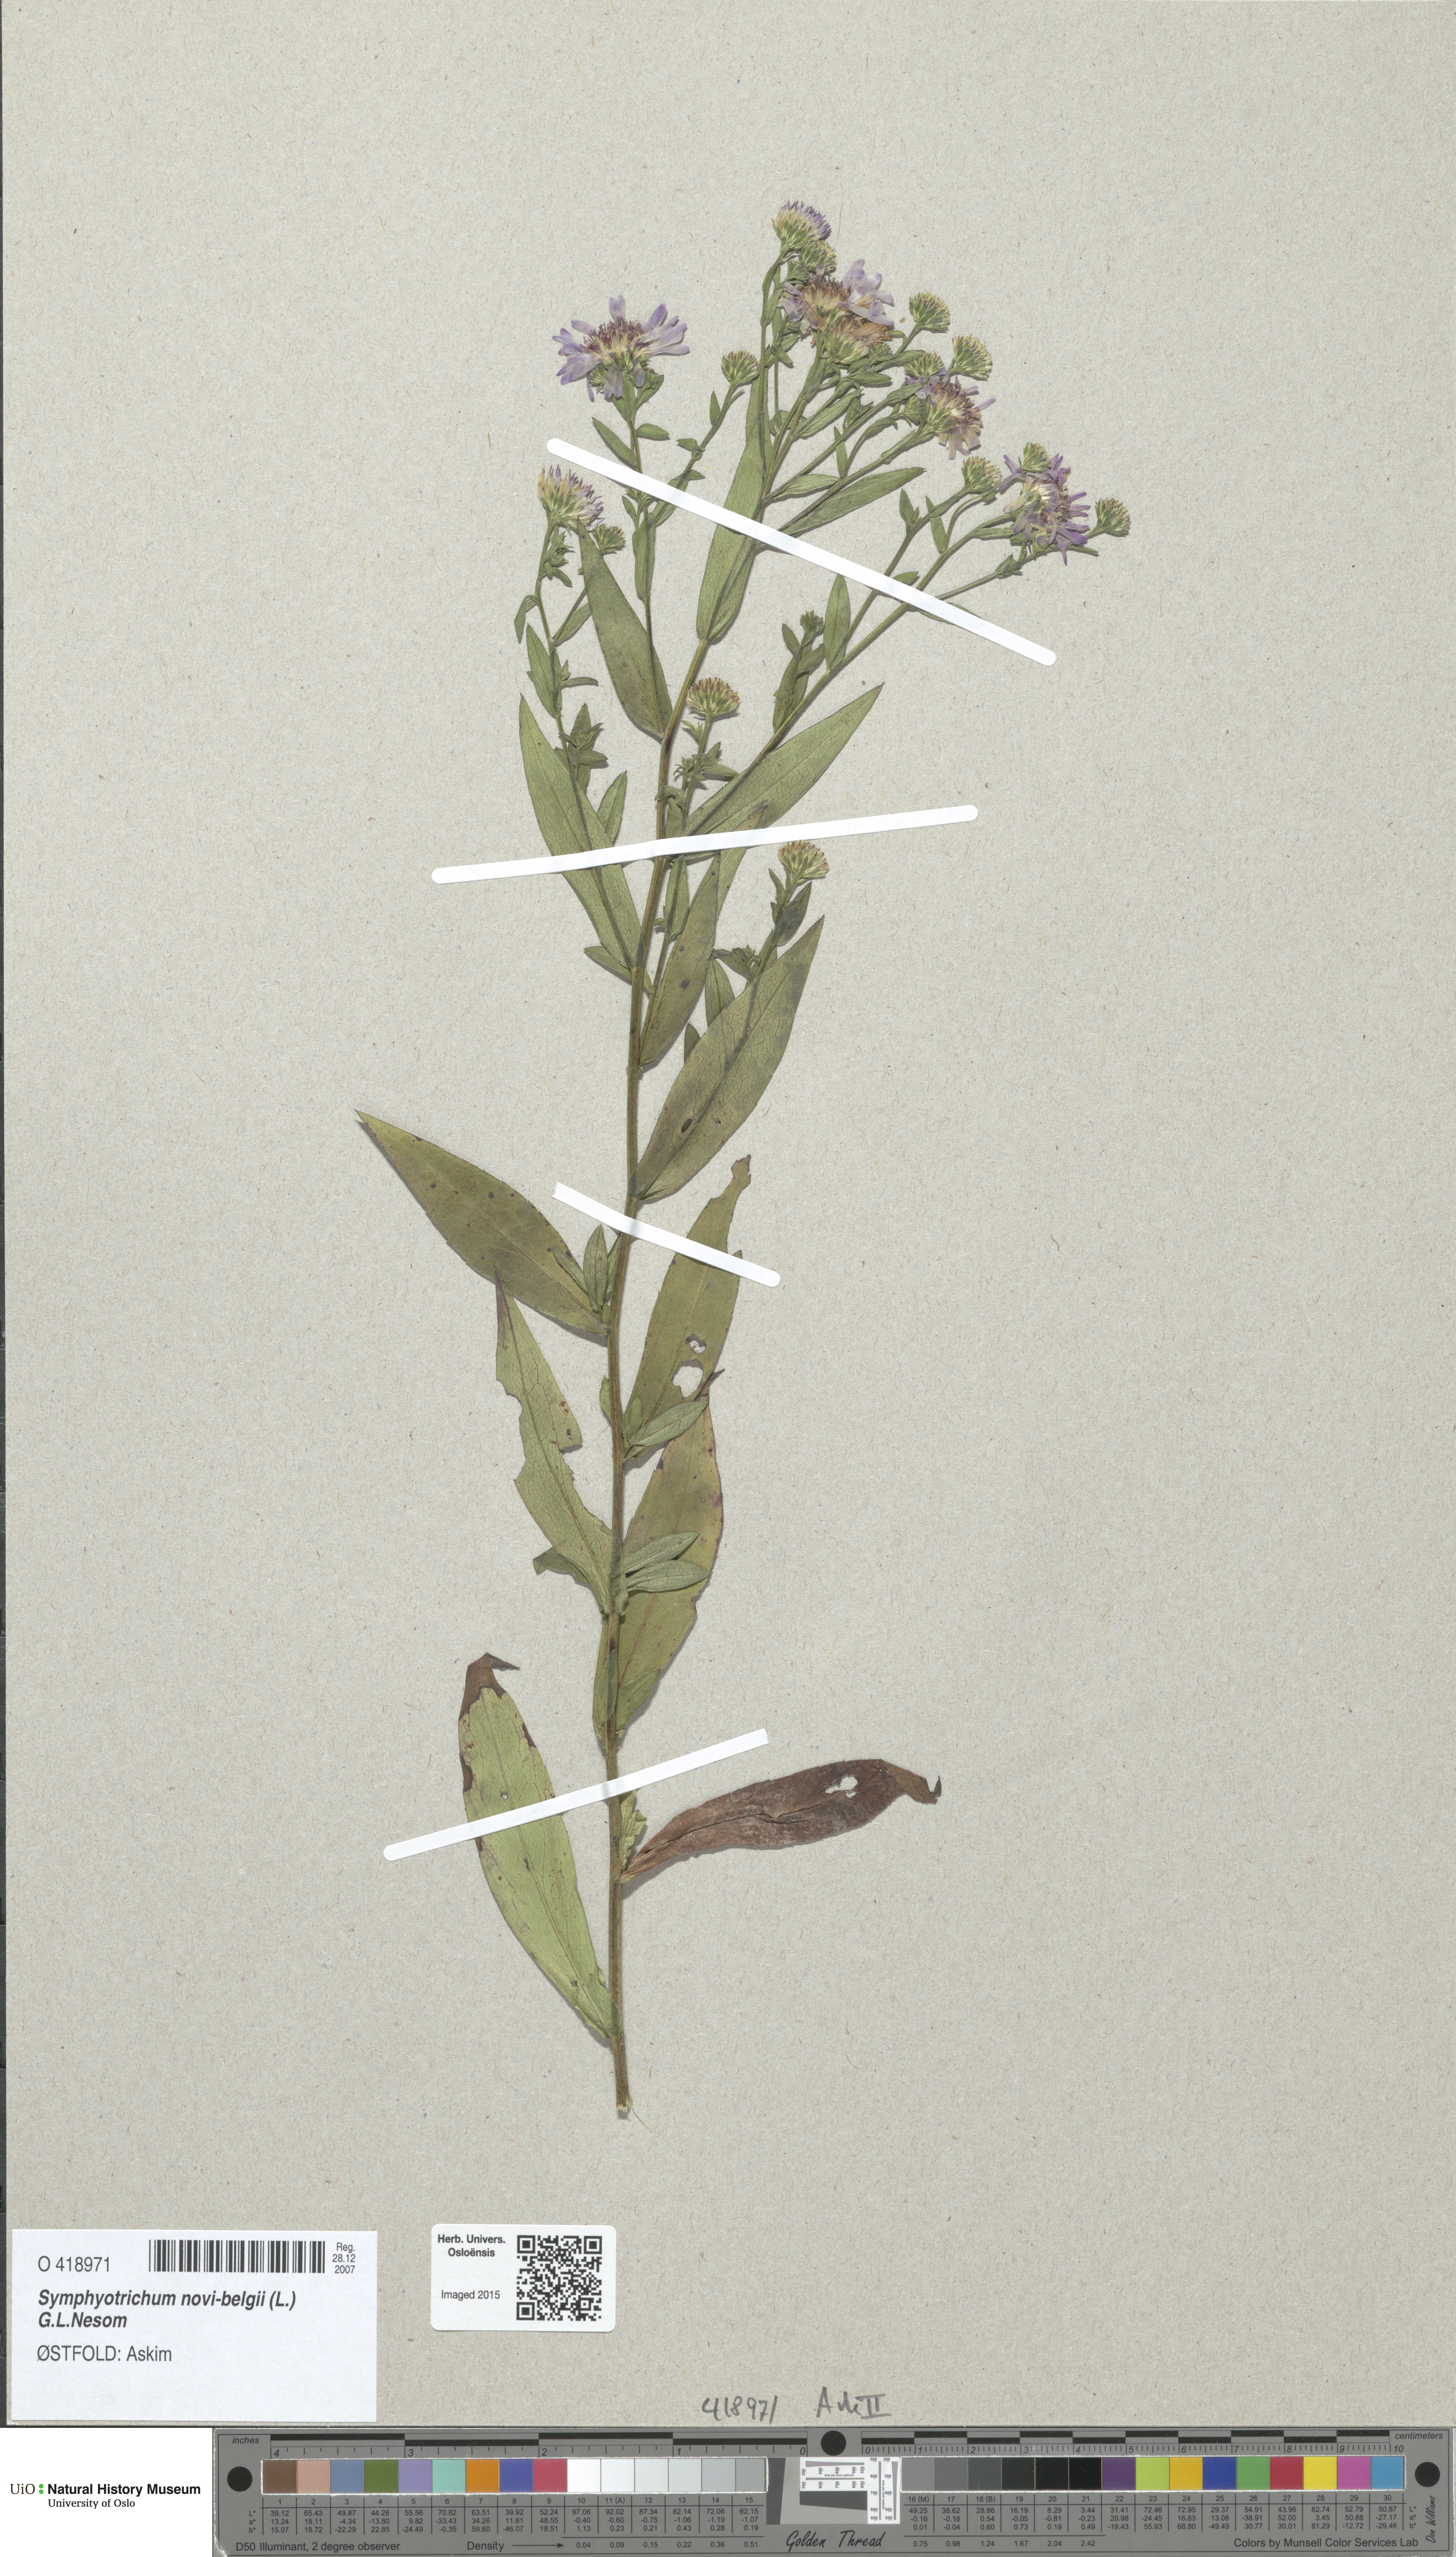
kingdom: Plantae
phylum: Tracheophyta
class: Magnoliopsida
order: Asterales
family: Asteraceae
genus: Symphyotrichum
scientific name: Symphyotrichum versicolor
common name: Late michaelmas daisy
